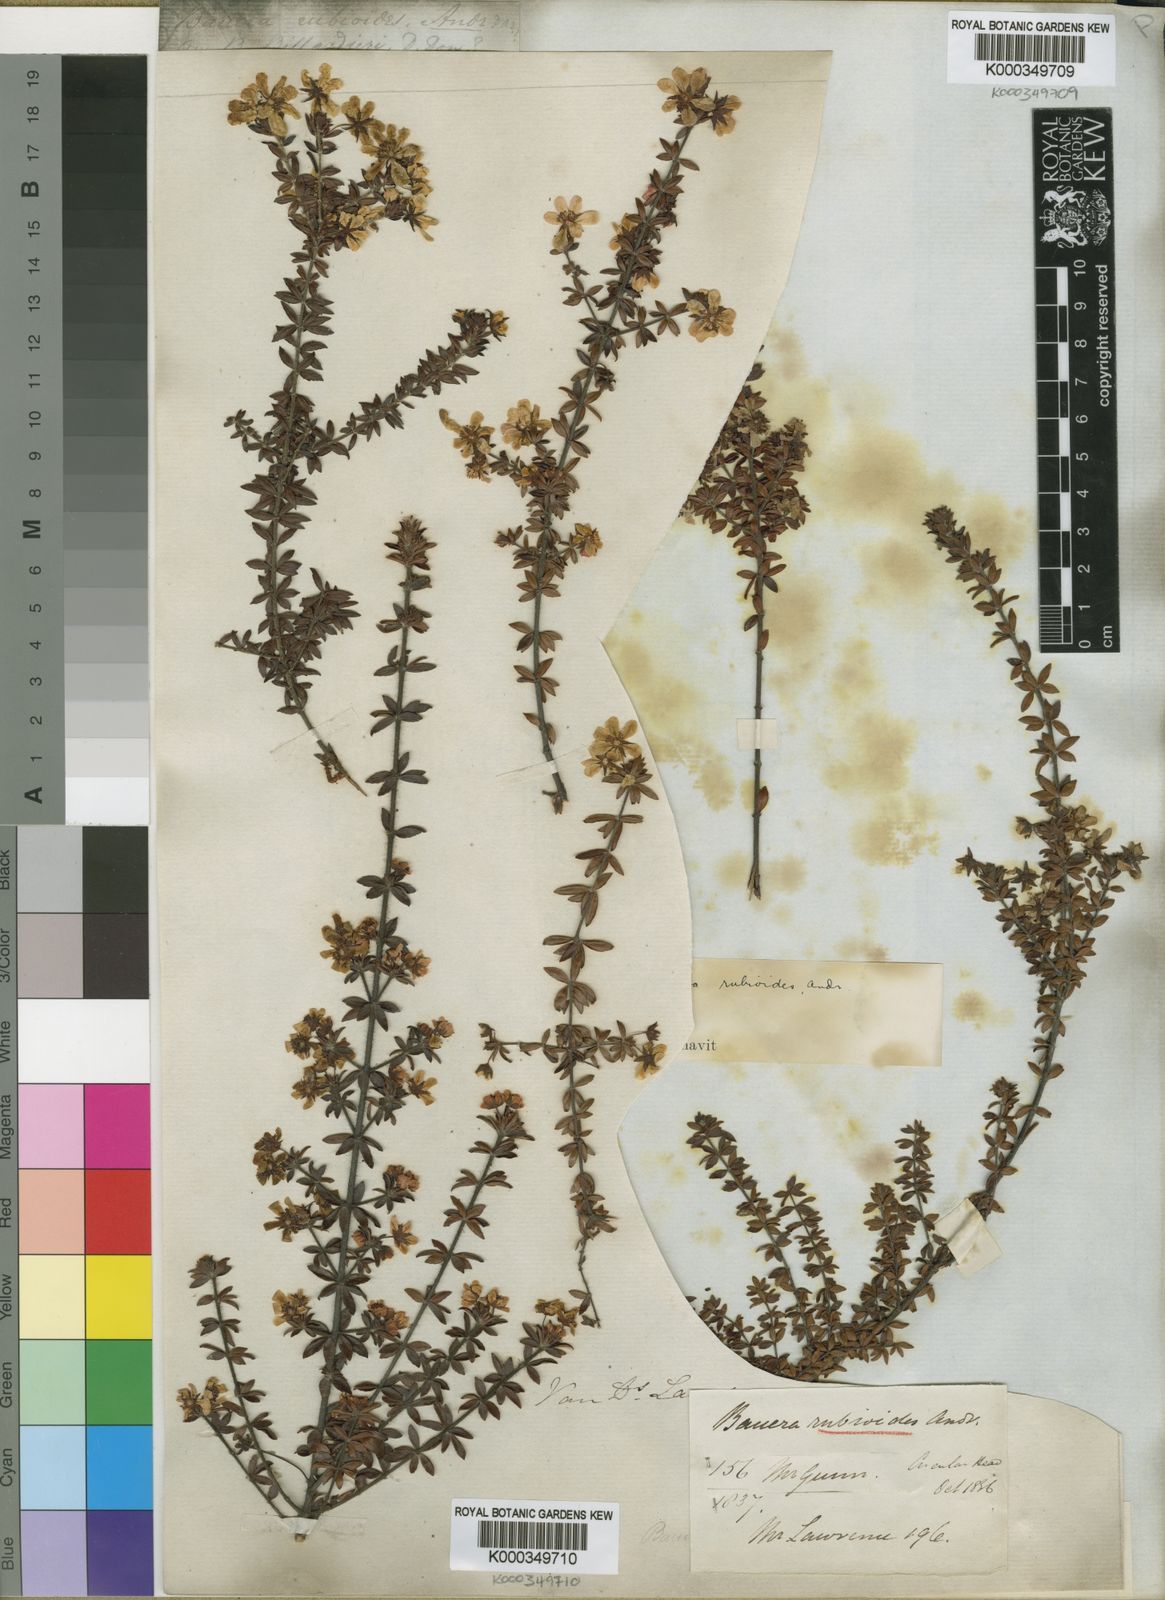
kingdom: Plantae
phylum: Tracheophyta
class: Magnoliopsida
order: Oxalidales
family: Cunoniaceae
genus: Bauera
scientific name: Bauera rubioides
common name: River-rose
